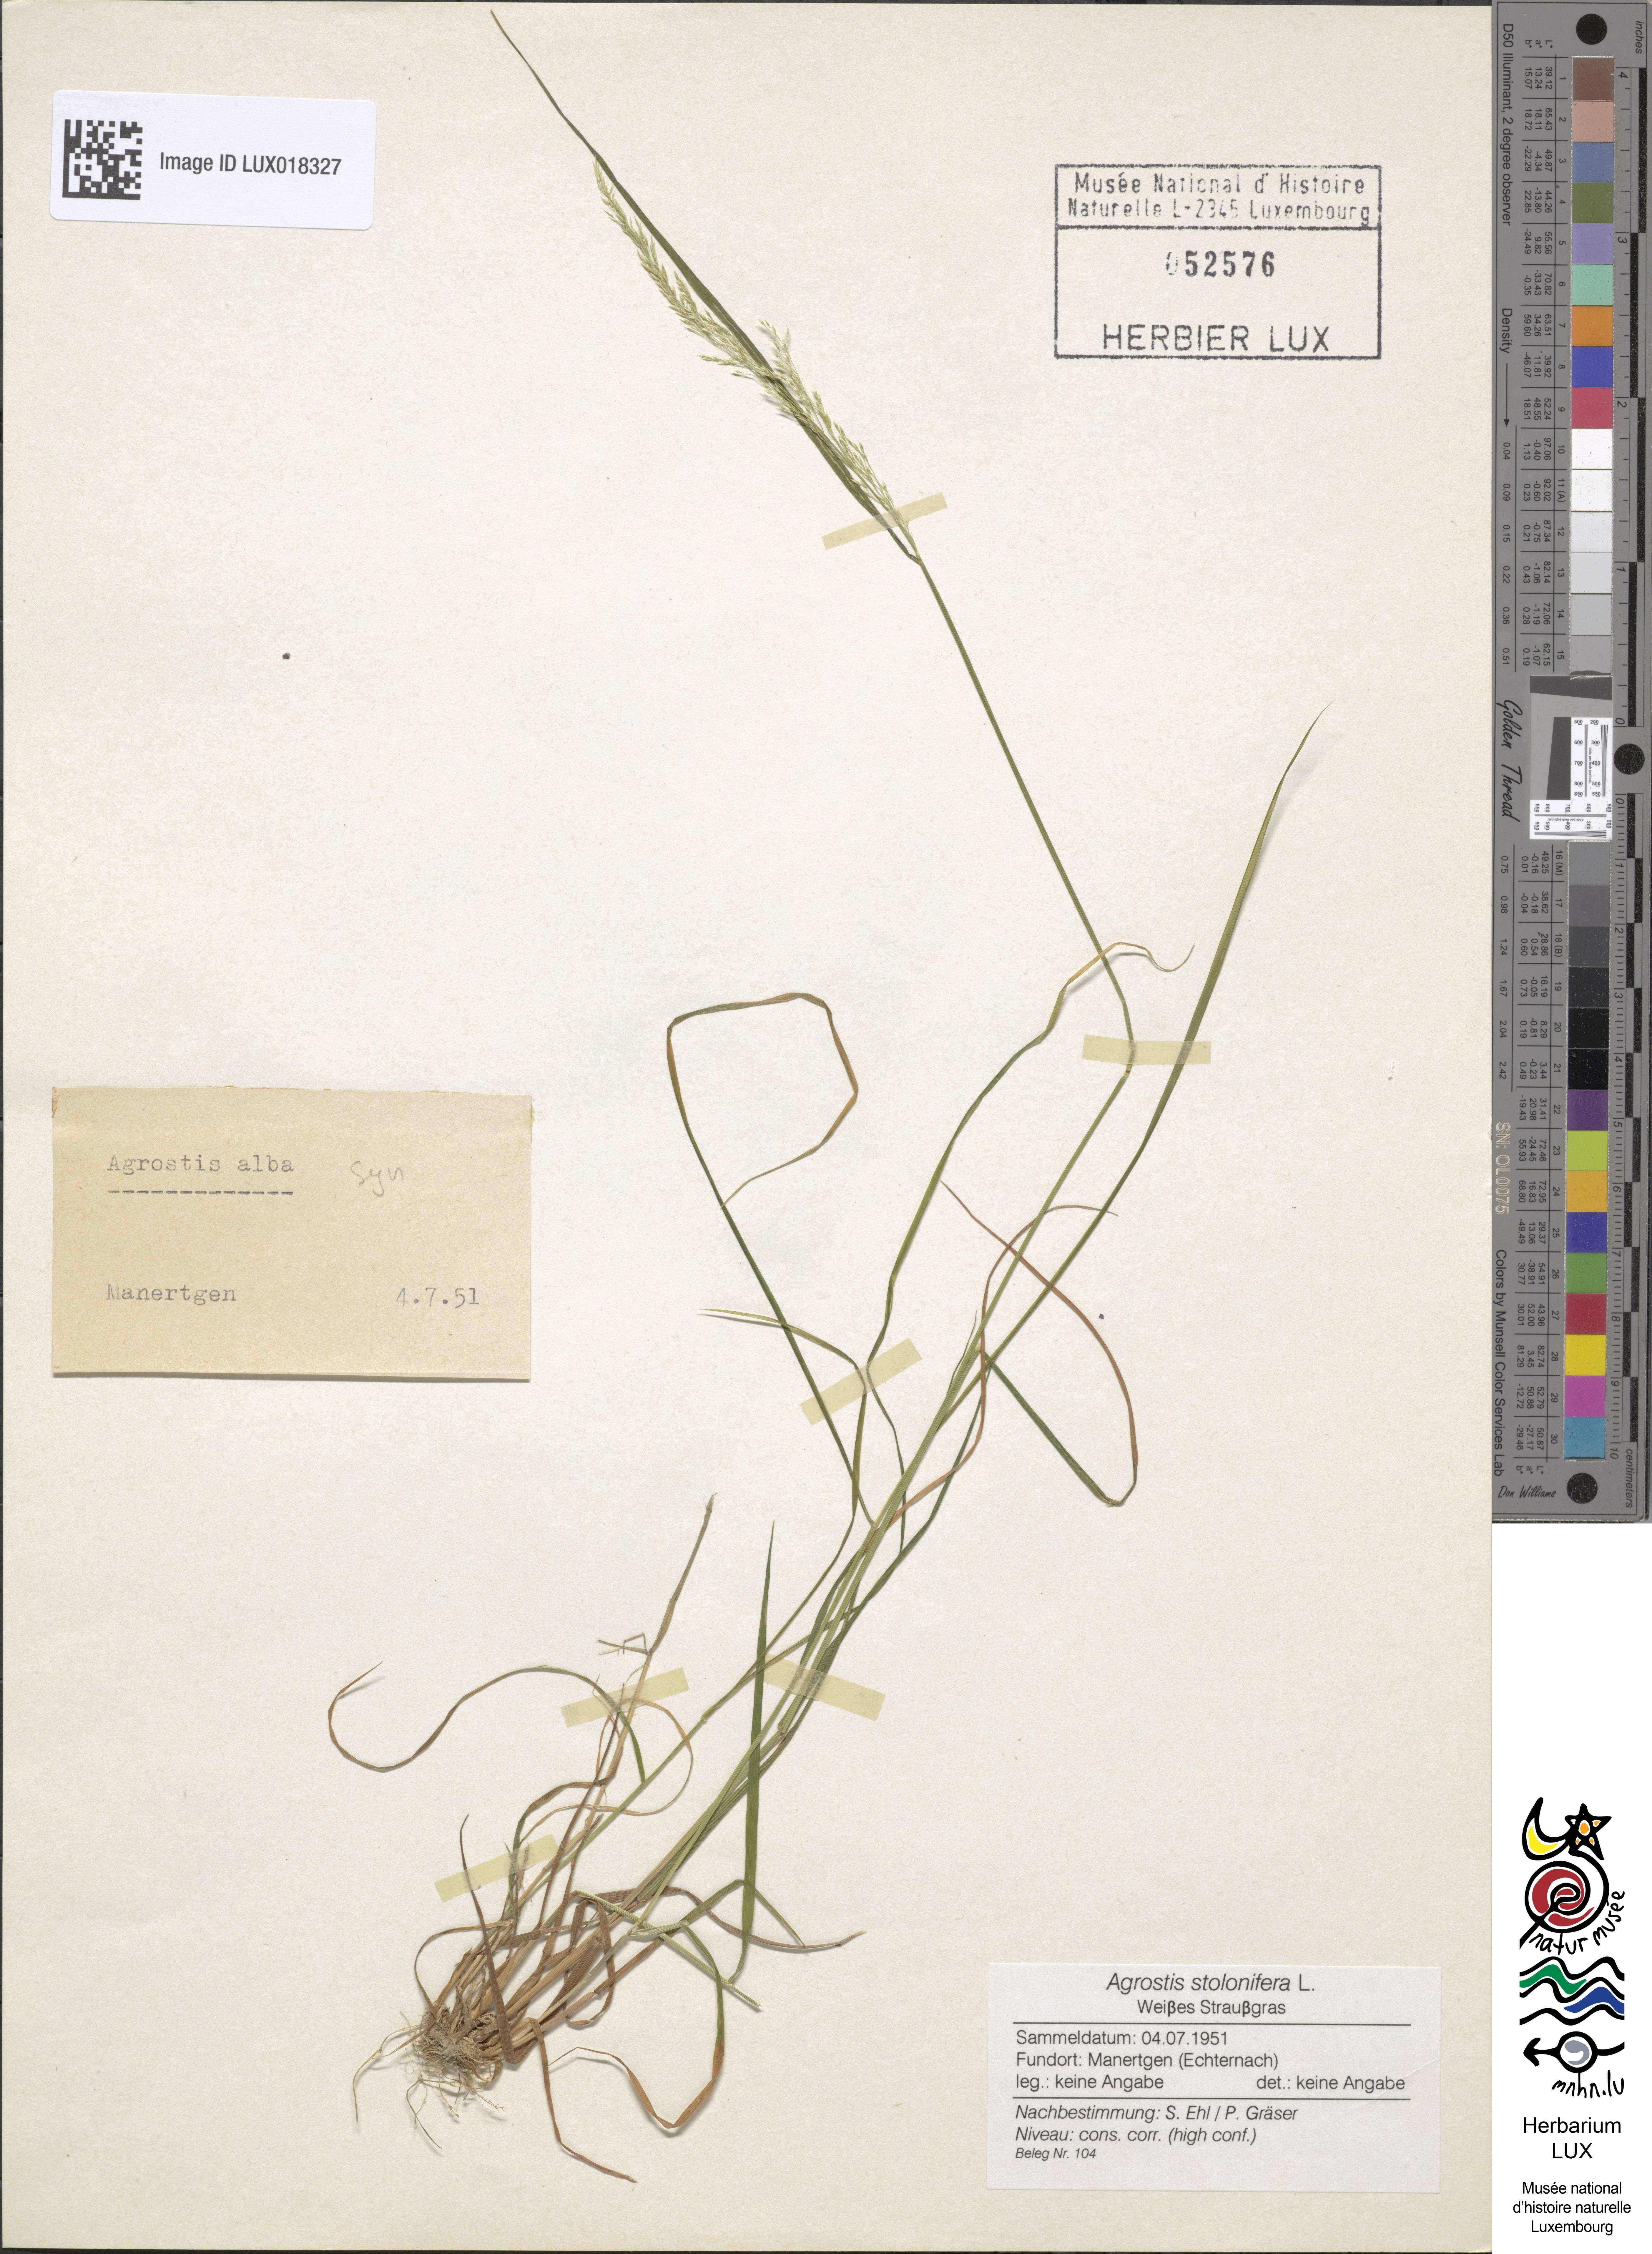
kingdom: Plantae
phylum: Tracheophyta
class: Liliopsida
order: Poales
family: Poaceae
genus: Agrostis
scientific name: Agrostis stolonifera
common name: Creeping bentgrass
